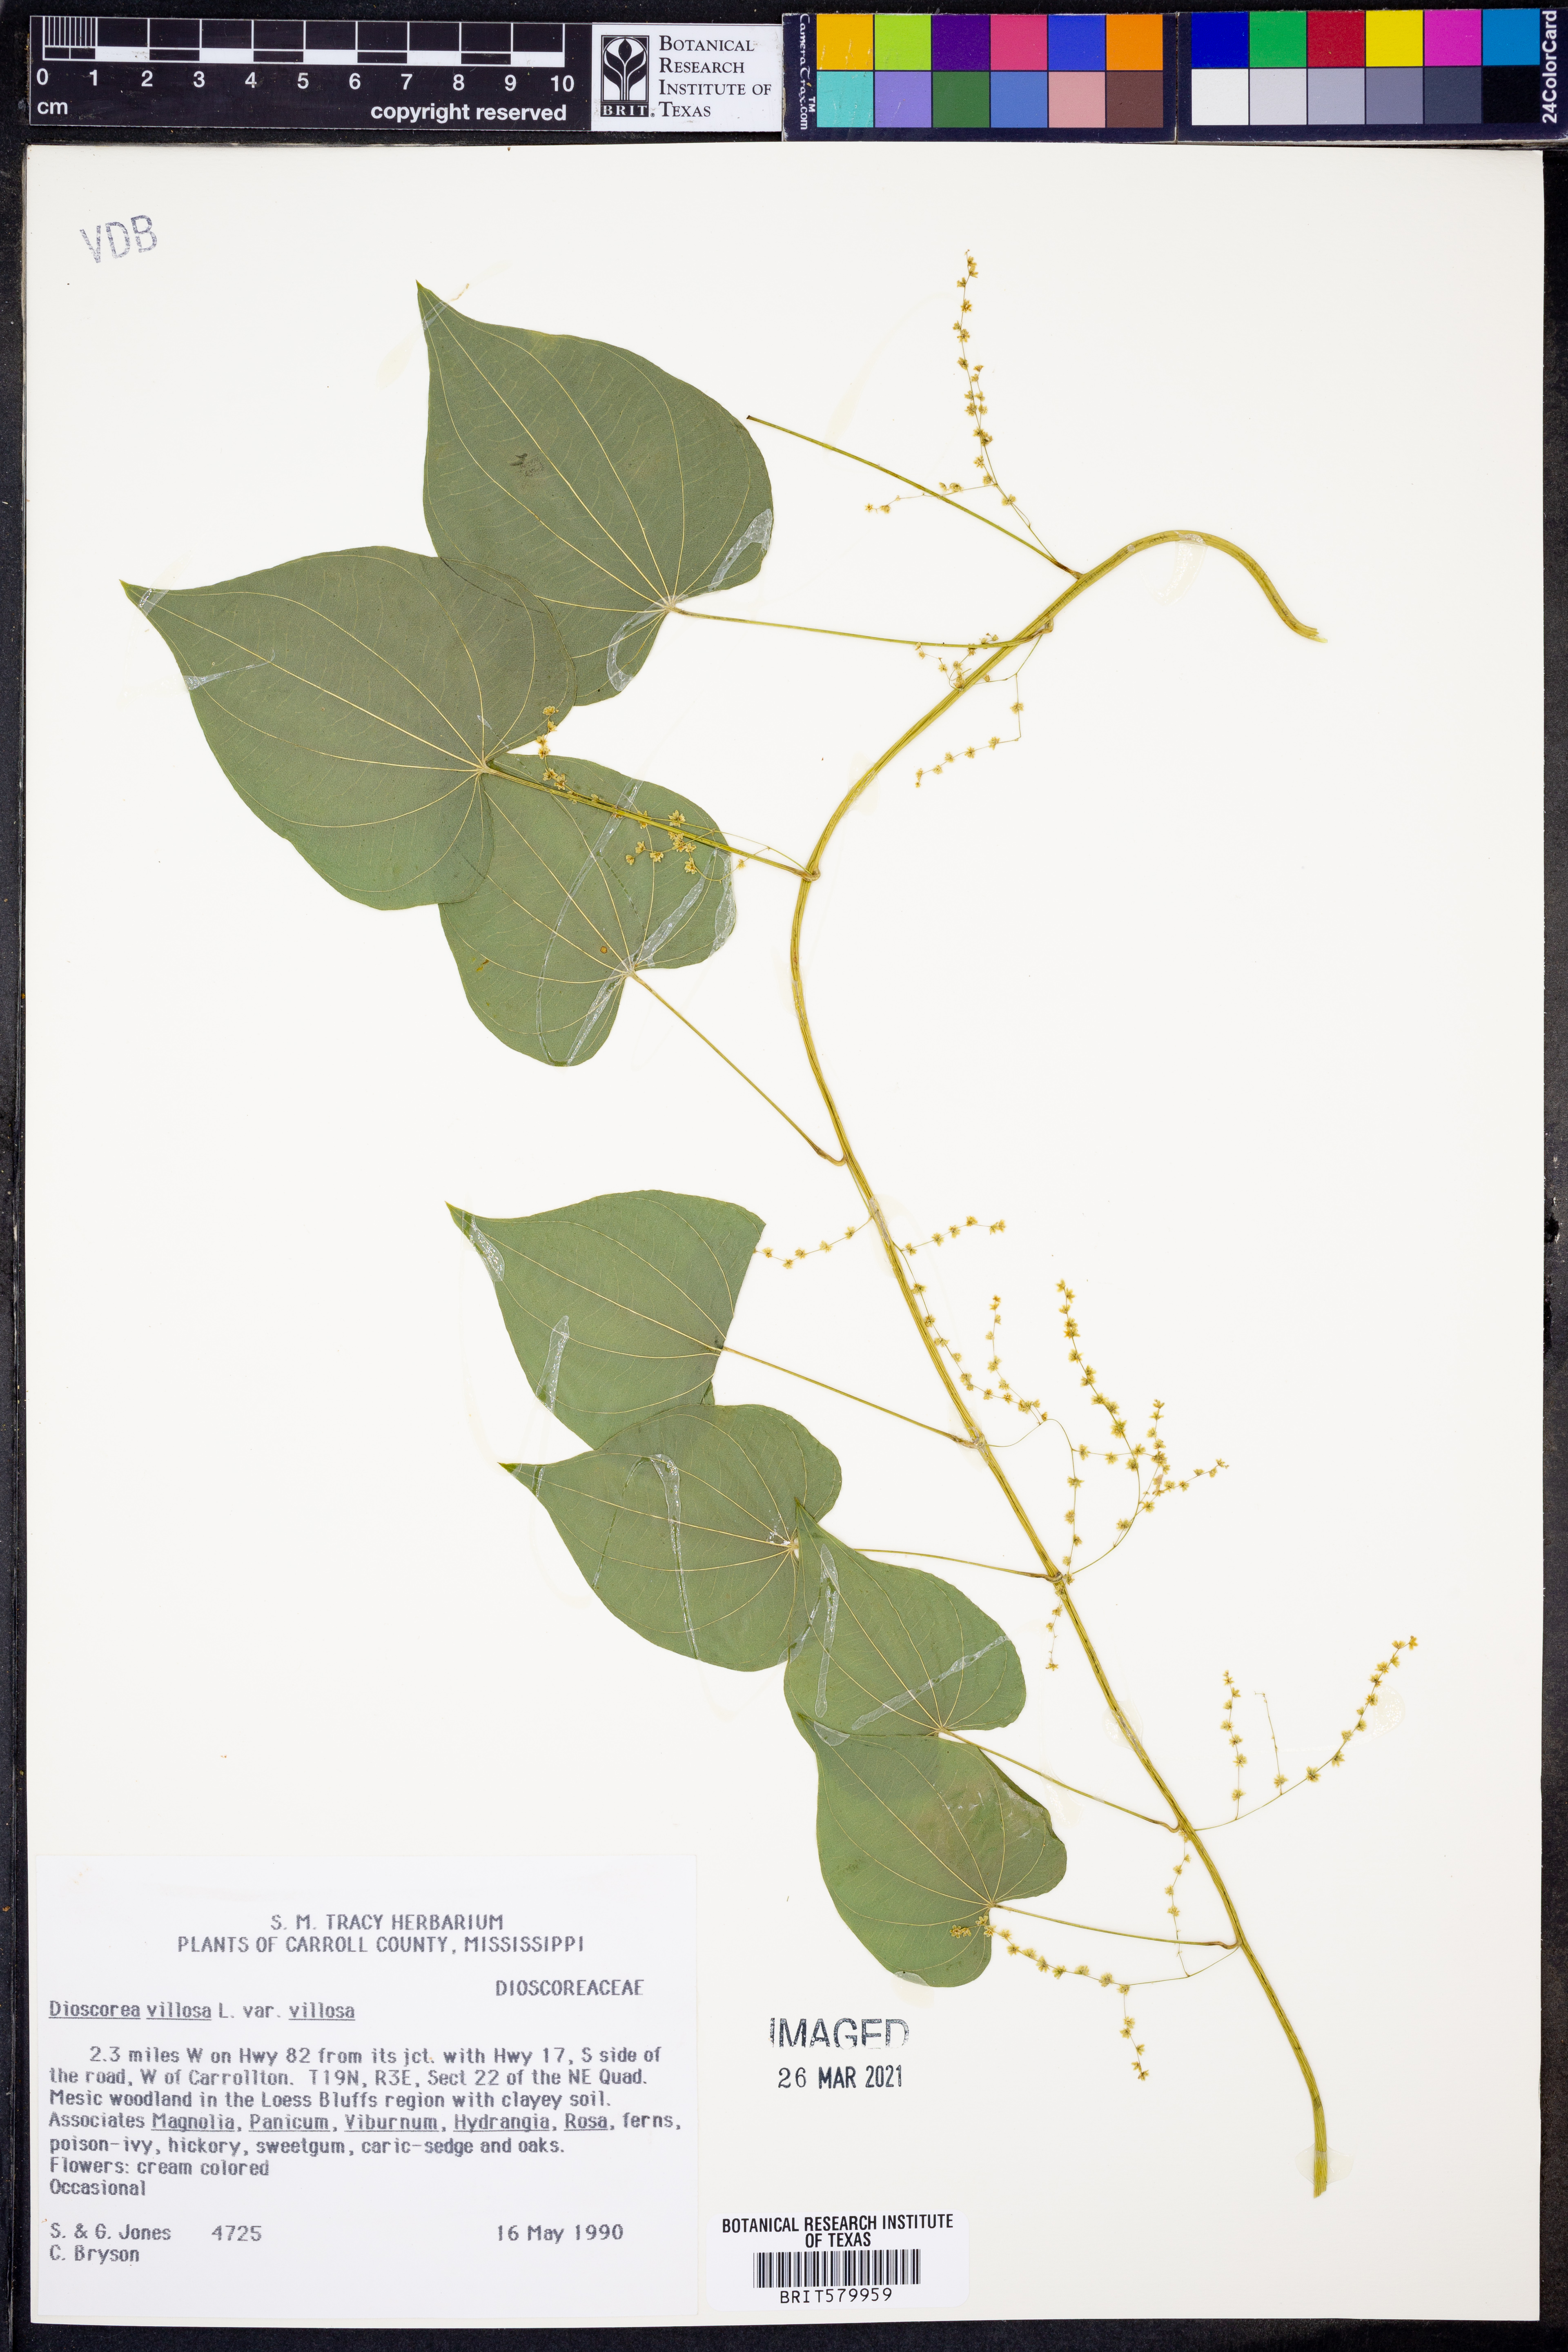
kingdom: Plantae
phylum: Tracheophyta
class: Liliopsida
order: Dioscoreales
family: Dioscoreaceae
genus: Dioscorea
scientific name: Dioscorea villosa
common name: Wild yam
